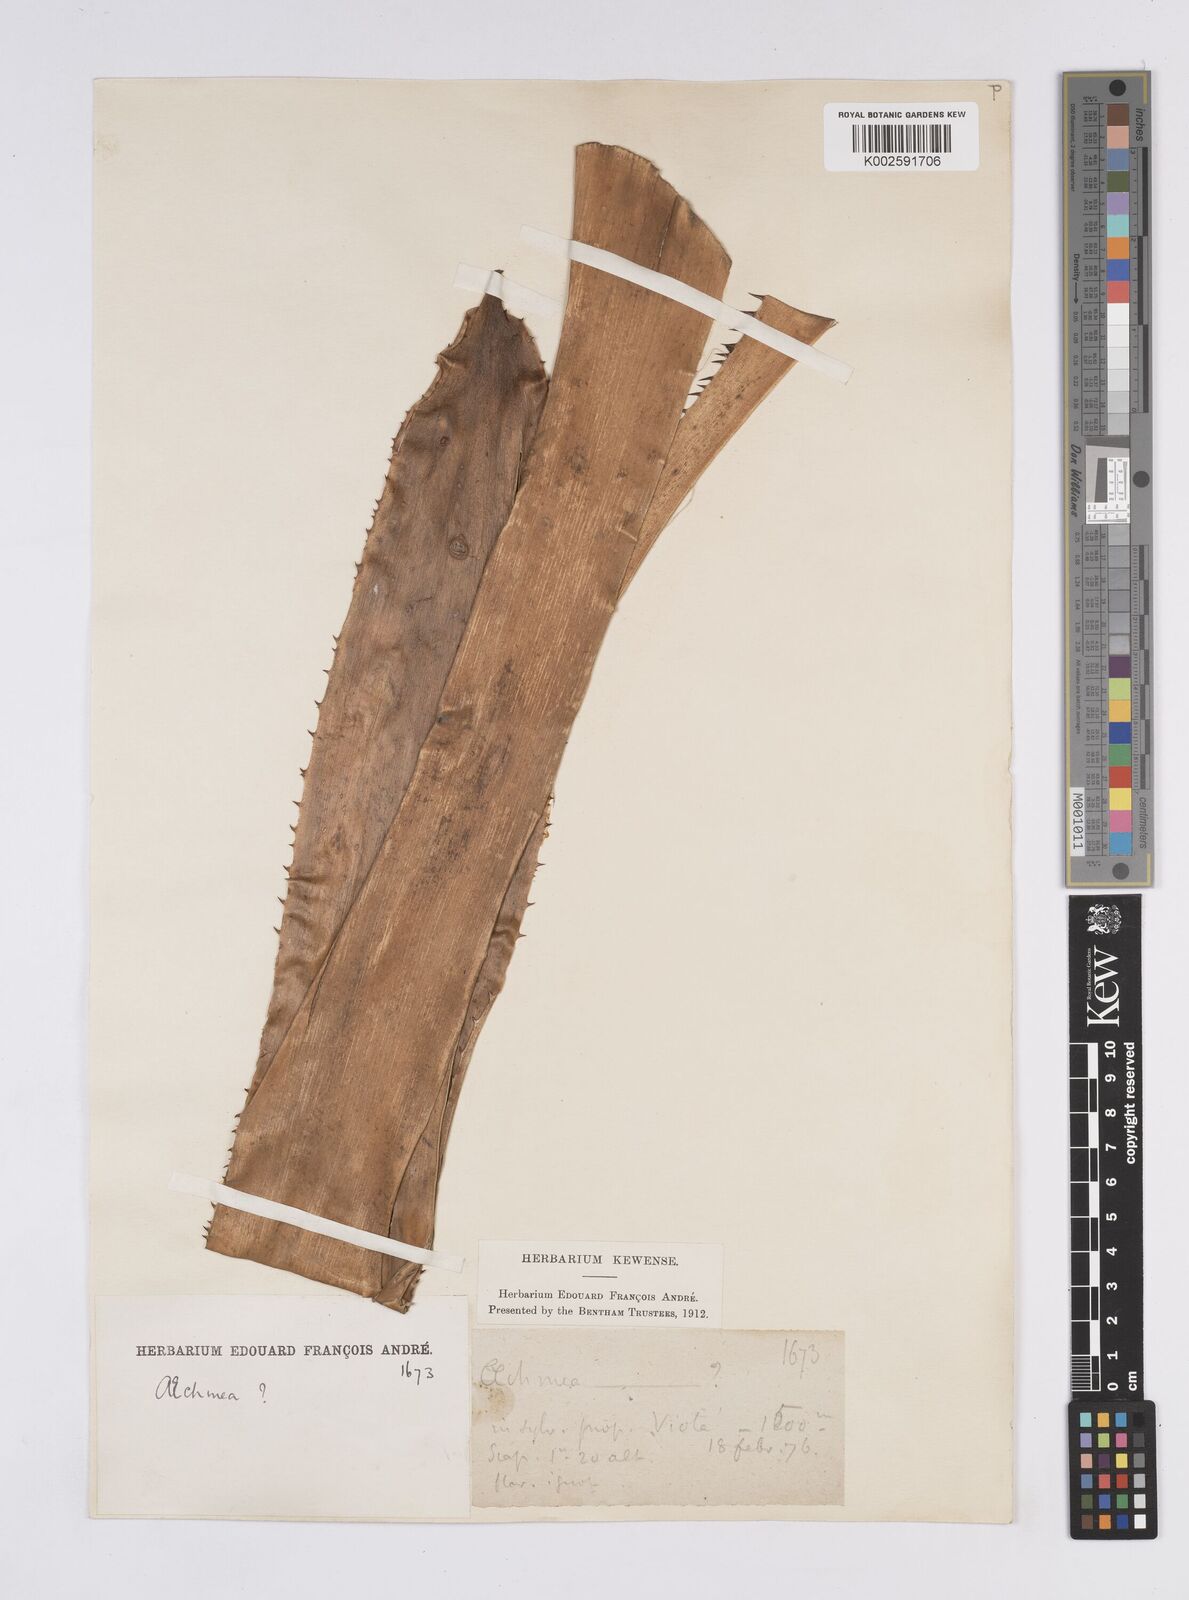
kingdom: Plantae
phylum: Tracheophyta
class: Liliopsida
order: Poales
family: Bromeliaceae
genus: Aechmea
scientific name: Aechmea
